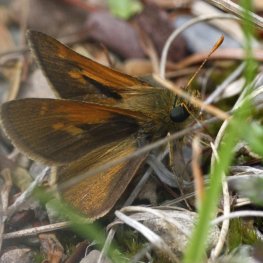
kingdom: Animalia
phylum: Arthropoda
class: Insecta
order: Lepidoptera
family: Hesperiidae
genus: Polites
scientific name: Polites themistocles
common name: Tawny-edged Skipper
